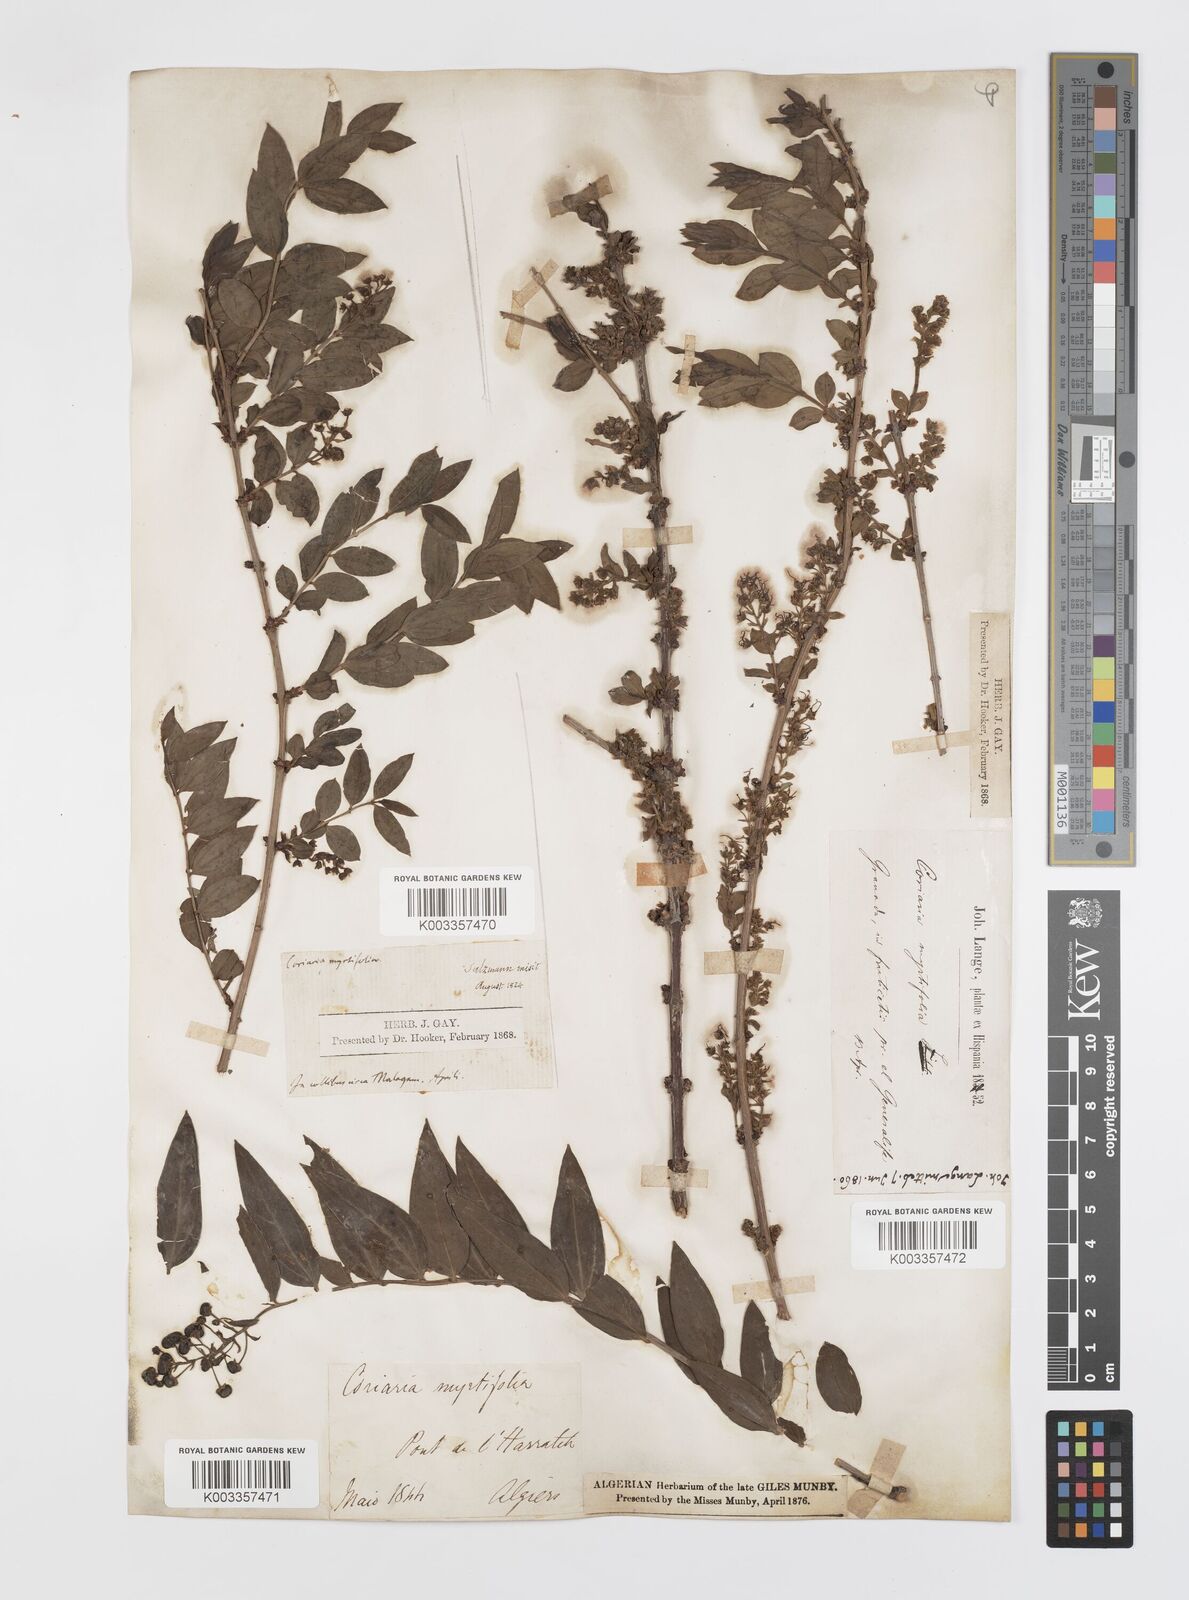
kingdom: Plantae
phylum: Tracheophyta
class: Magnoliopsida
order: Cucurbitales
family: Coriariaceae
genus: Coriaria
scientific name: Coriaria myrtifolia
